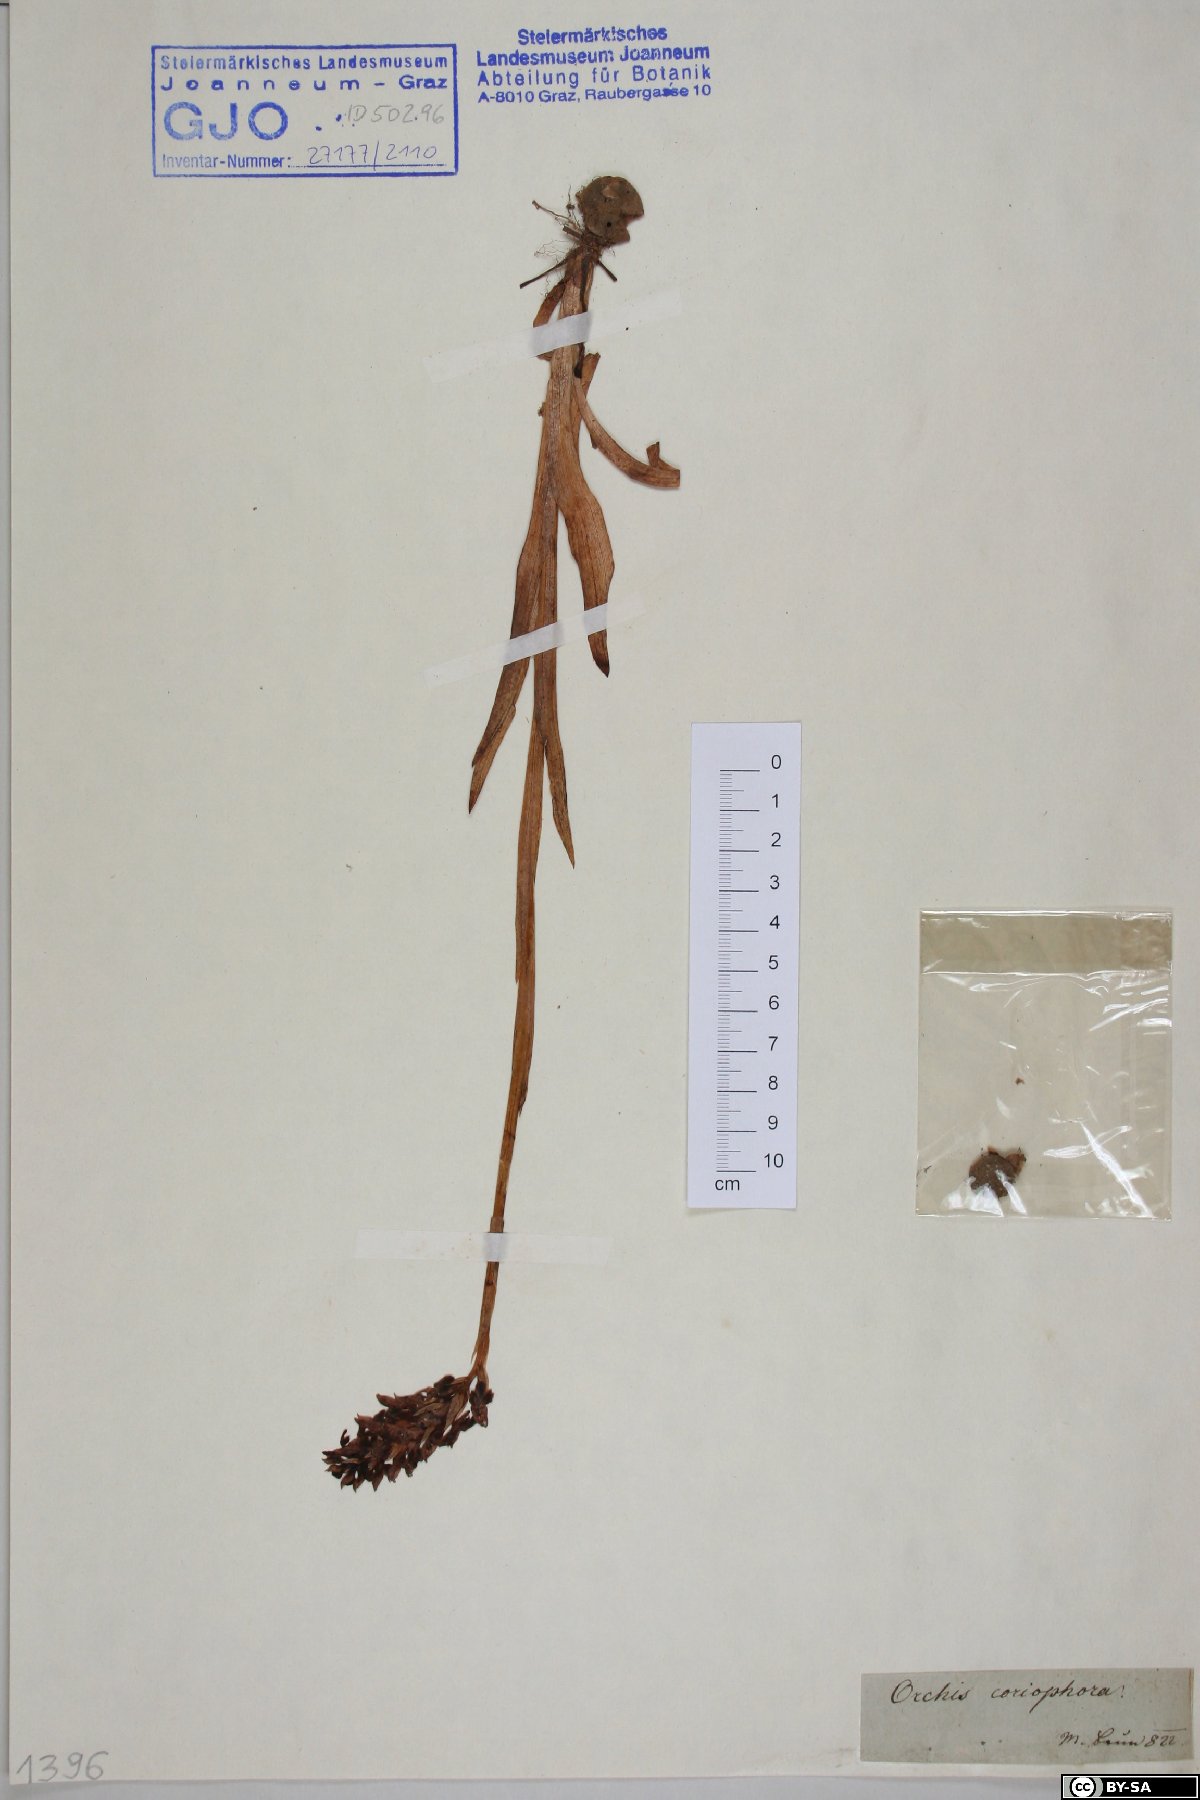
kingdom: Plantae
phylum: Tracheophyta
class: Liliopsida
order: Asparagales
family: Orchidaceae
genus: Anacamptis
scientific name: Anacamptis coriophora
